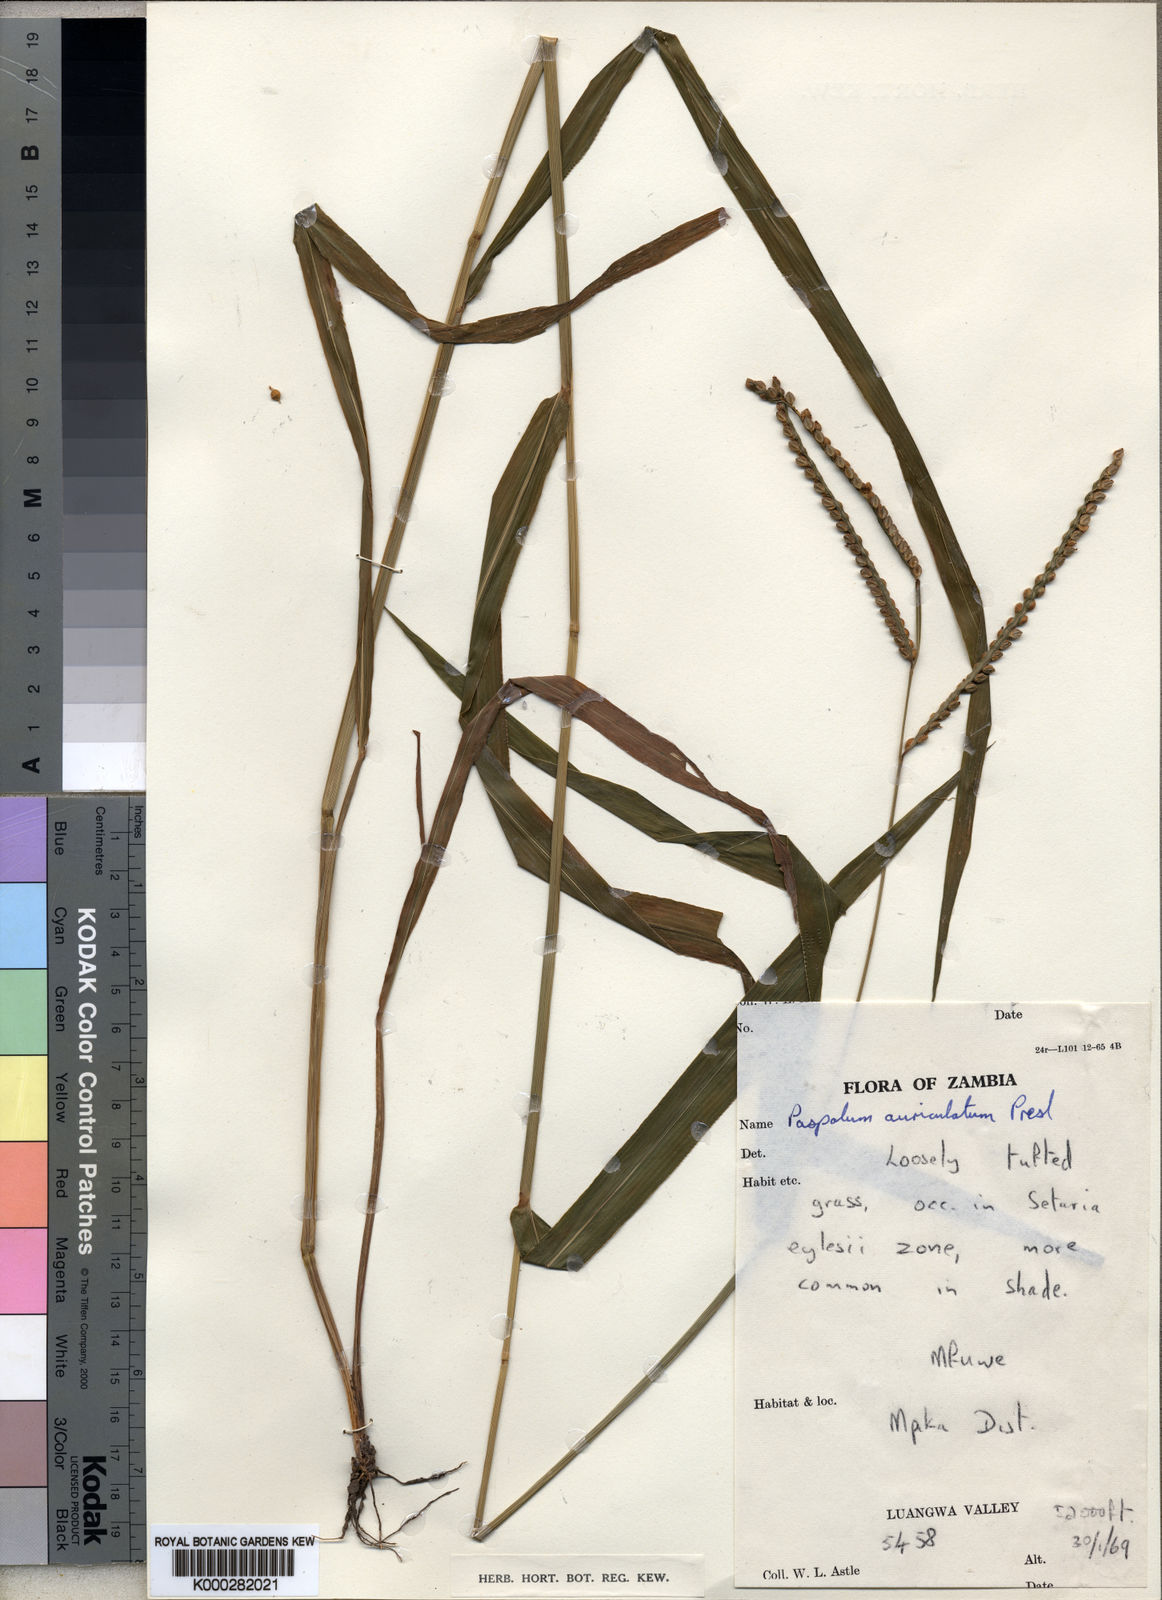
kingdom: Plantae
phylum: Tracheophyta
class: Liliopsida
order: Poales
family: Poaceae
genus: Paspalum
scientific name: Paspalum glumaceum
